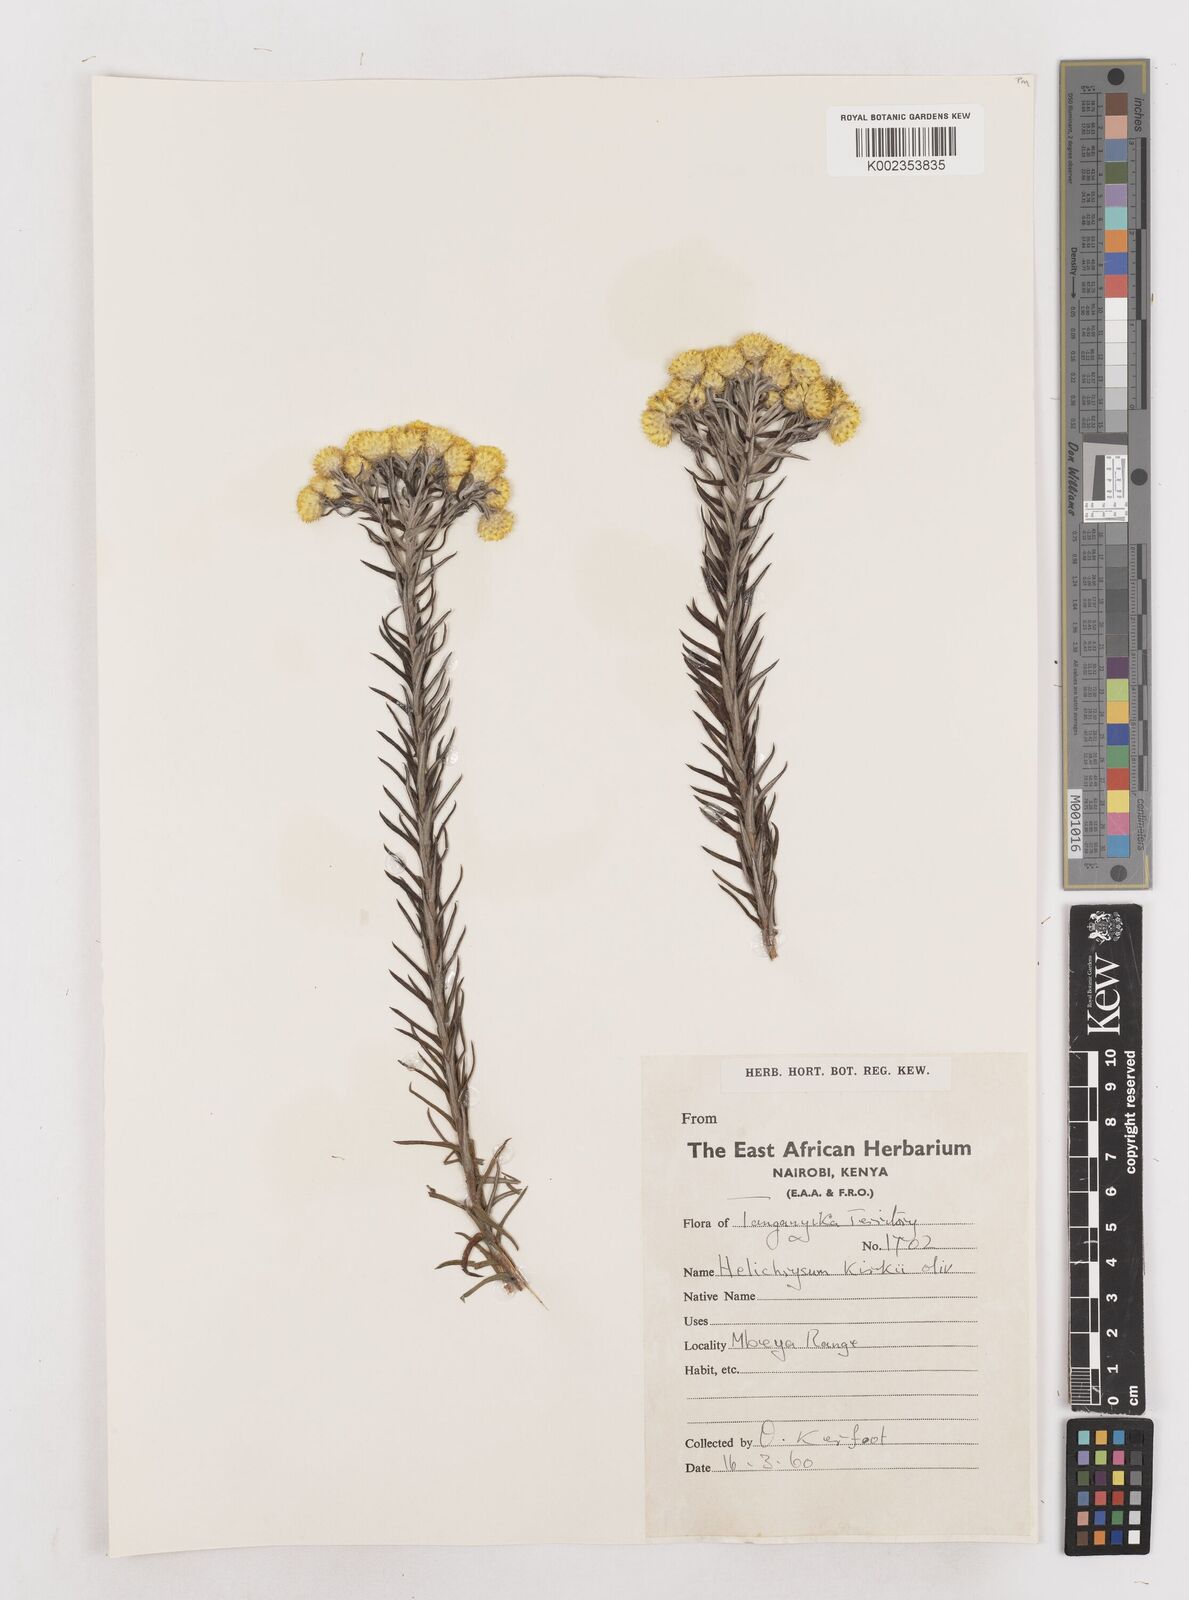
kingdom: Plantae
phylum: Tracheophyta
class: Magnoliopsida
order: Asterales
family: Asteraceae
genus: Helichrysum
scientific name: Helichrysum kirkii
